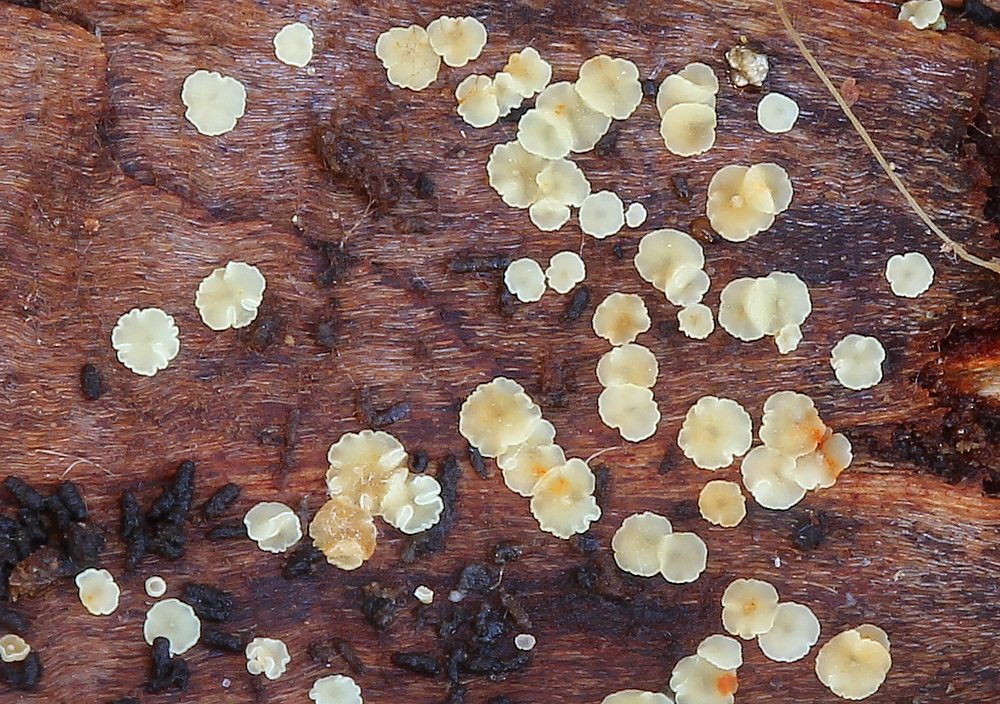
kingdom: Fungi
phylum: Ascomycota
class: Leotiomycetes
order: Helotiales
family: Pezizellaceae
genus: Calycina
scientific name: Calycina conorum
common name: kogle-gulskive
